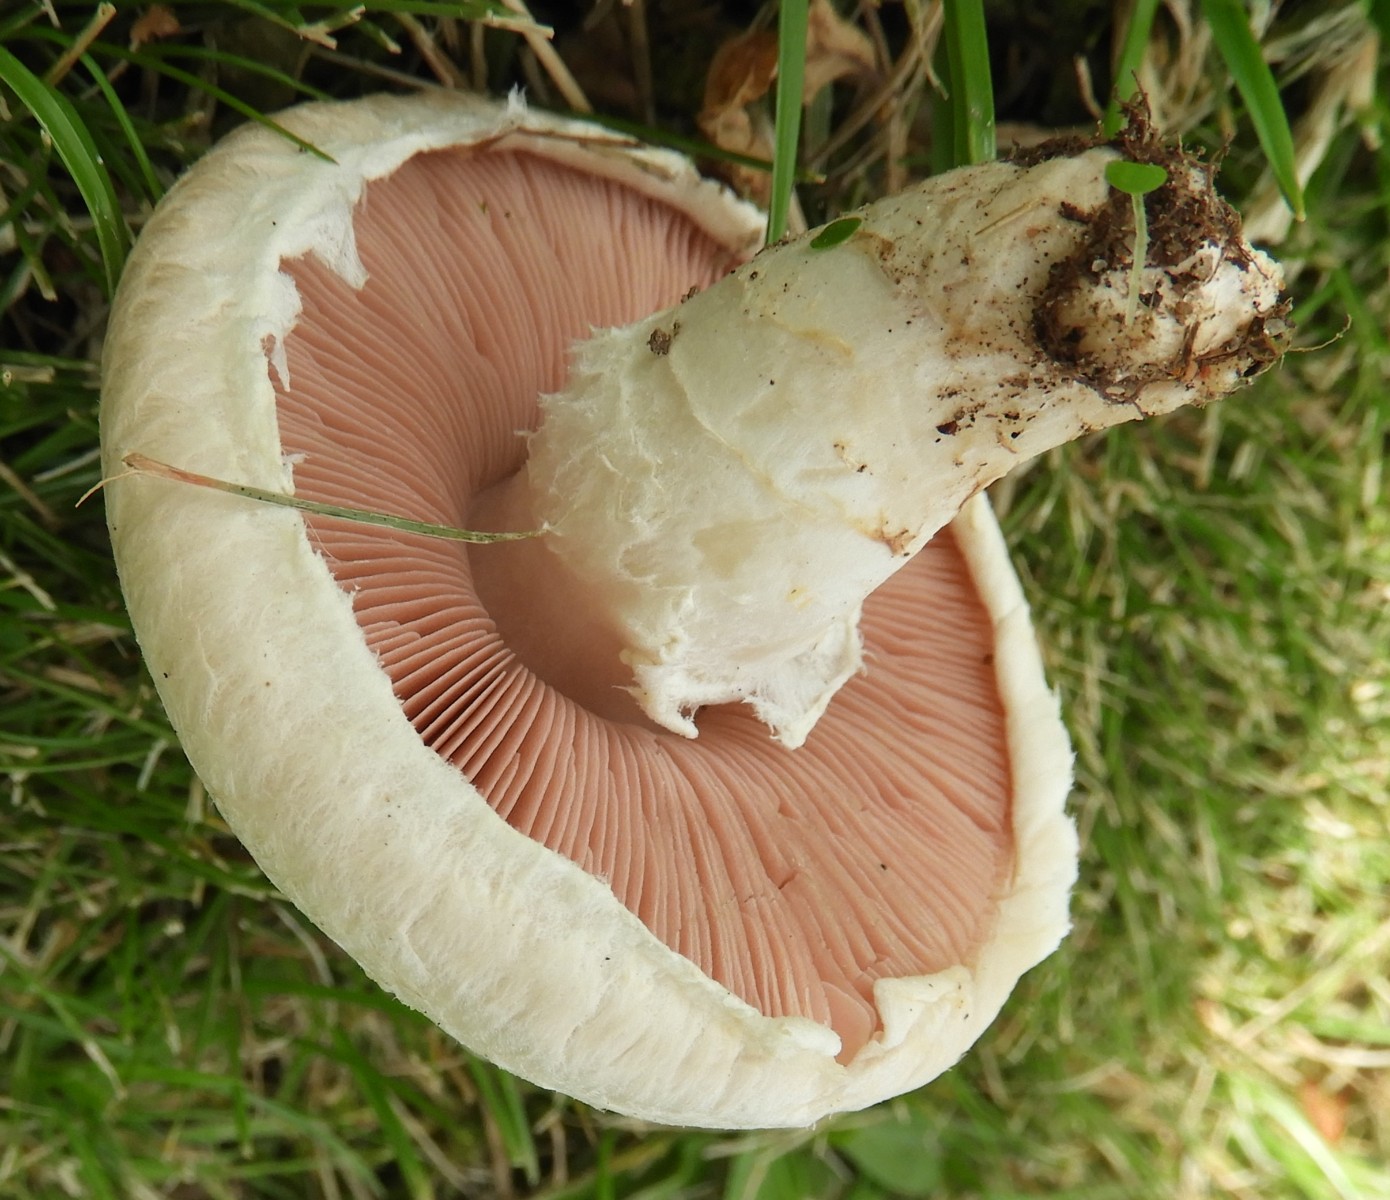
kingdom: Fungi
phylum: Basidiomycota
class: Agaricomycetes
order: Agaricales
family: Agaricaceae
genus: Agaricus
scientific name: Agaricus
